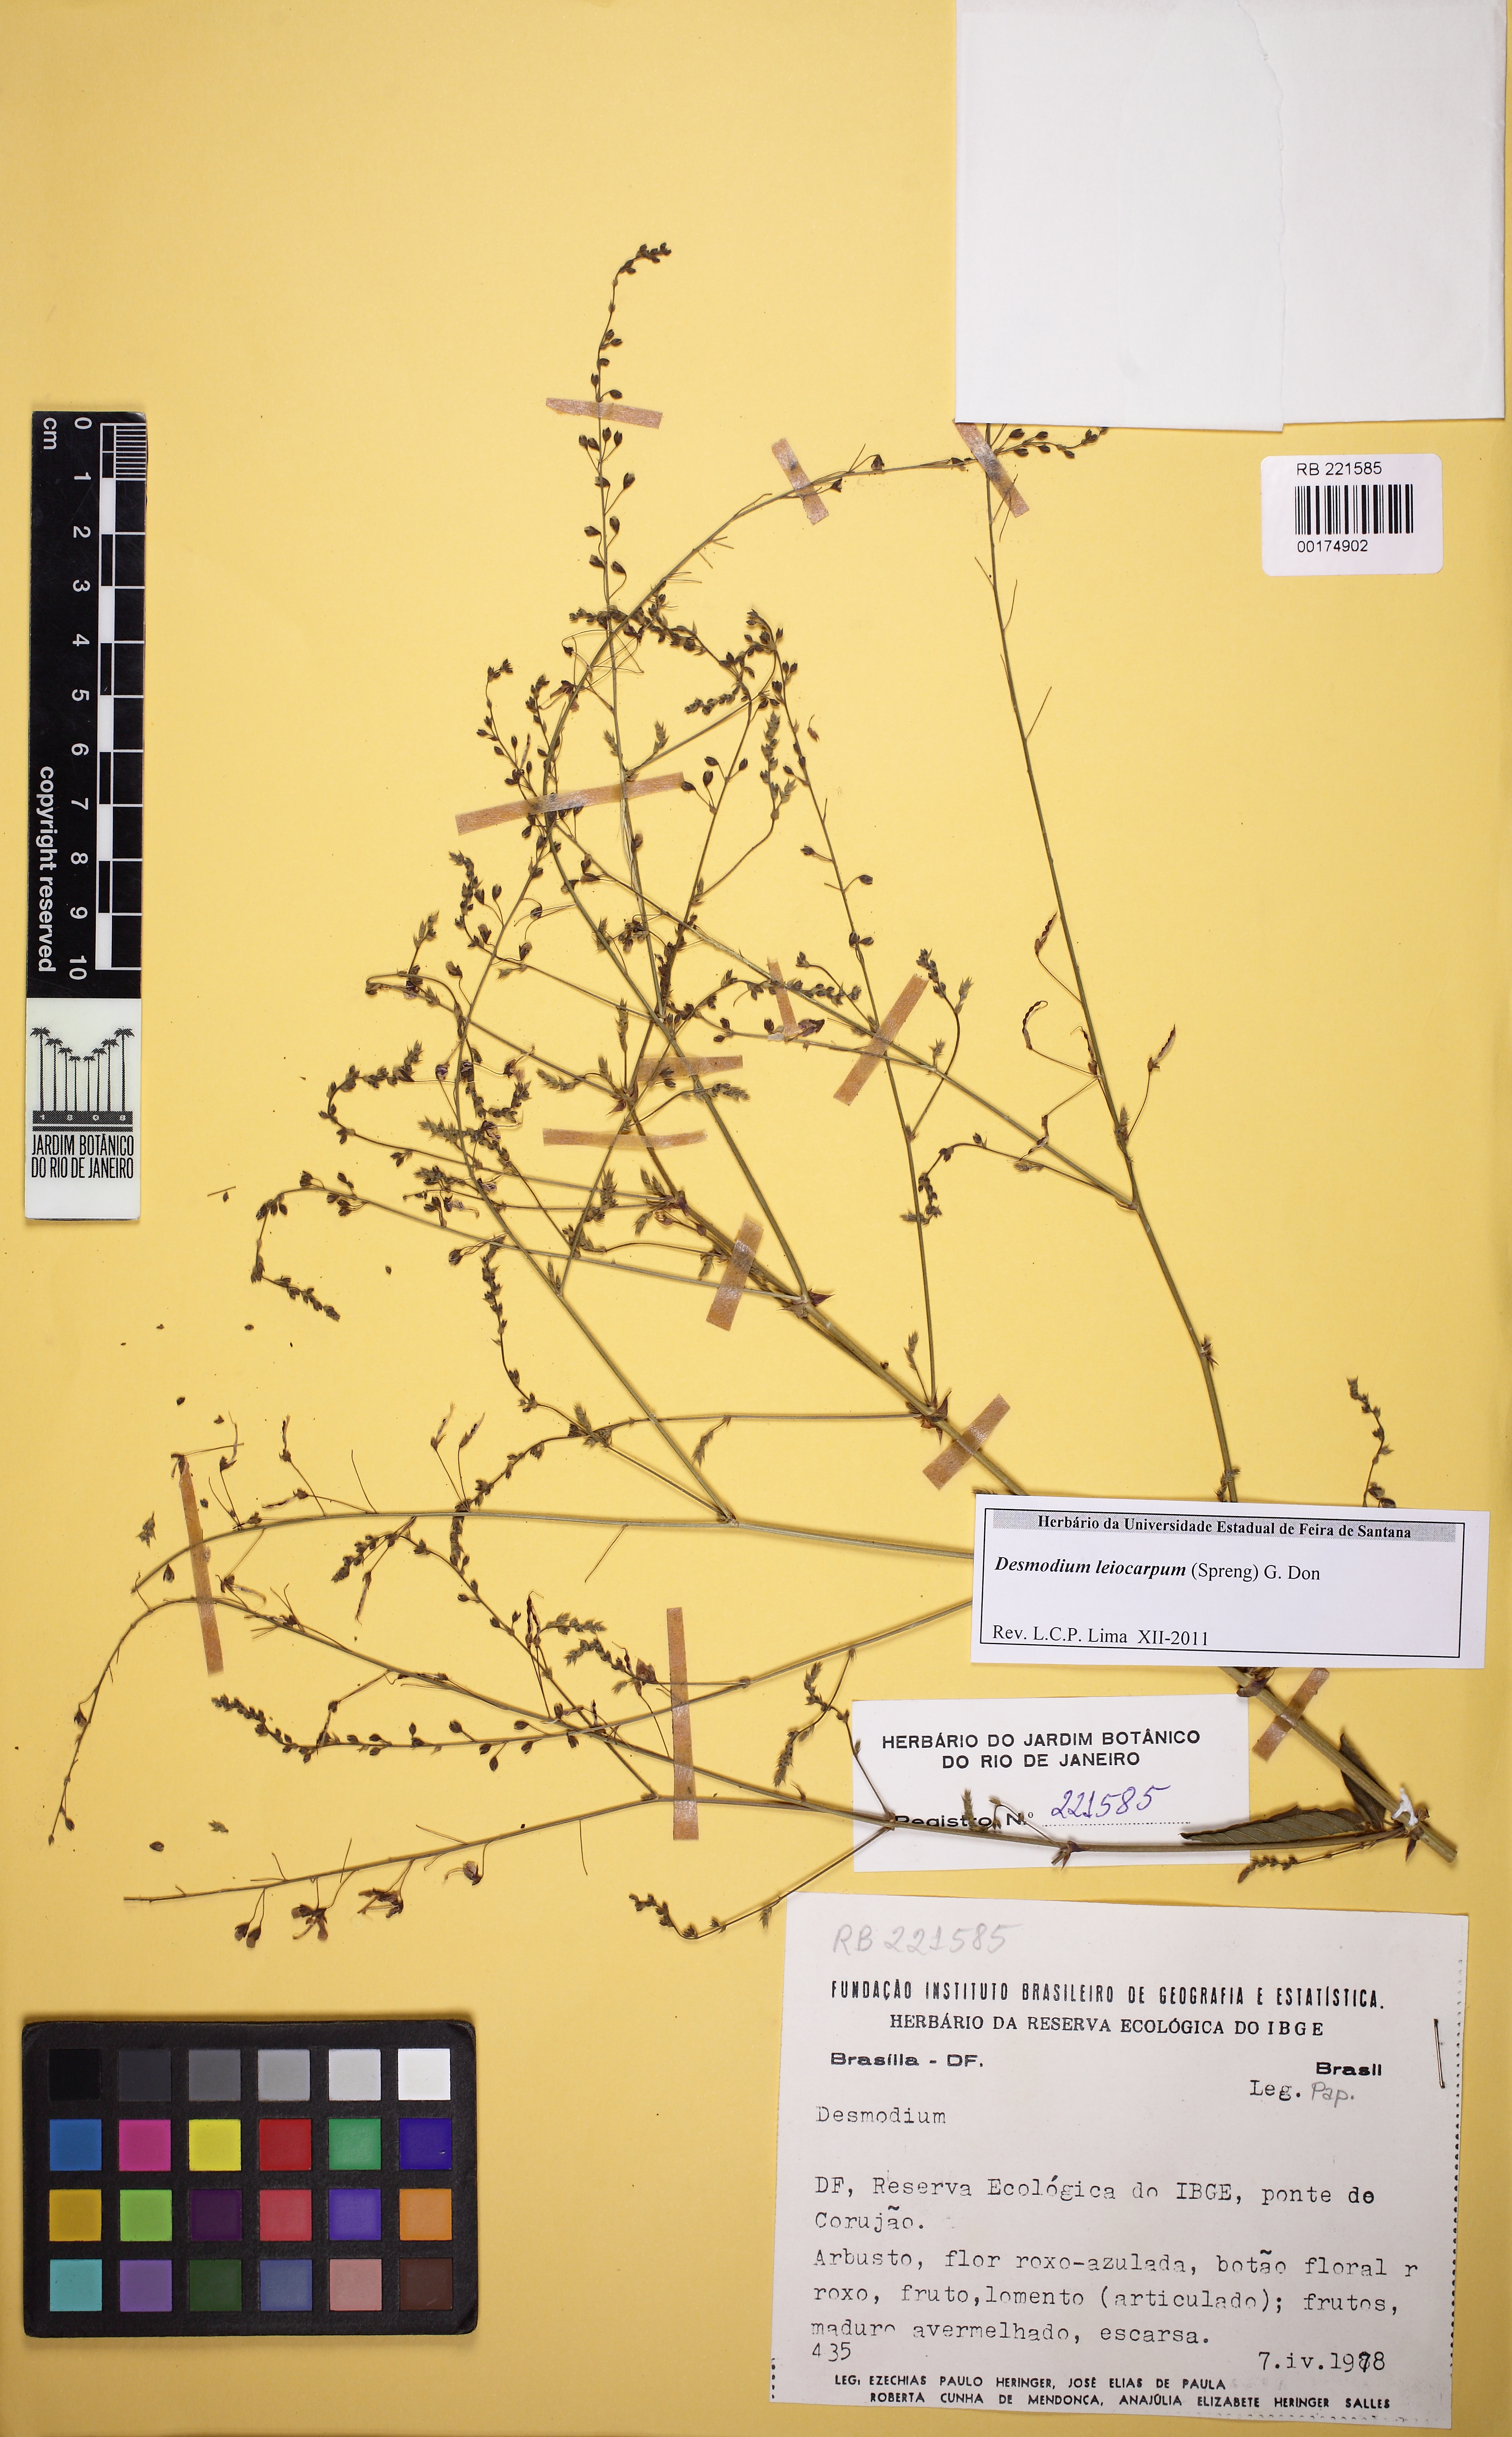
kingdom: Plantae
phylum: Tracheophyta
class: Magnoliopsida
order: Fabales
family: Fabaceae
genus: Desmodium
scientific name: Desmodium
